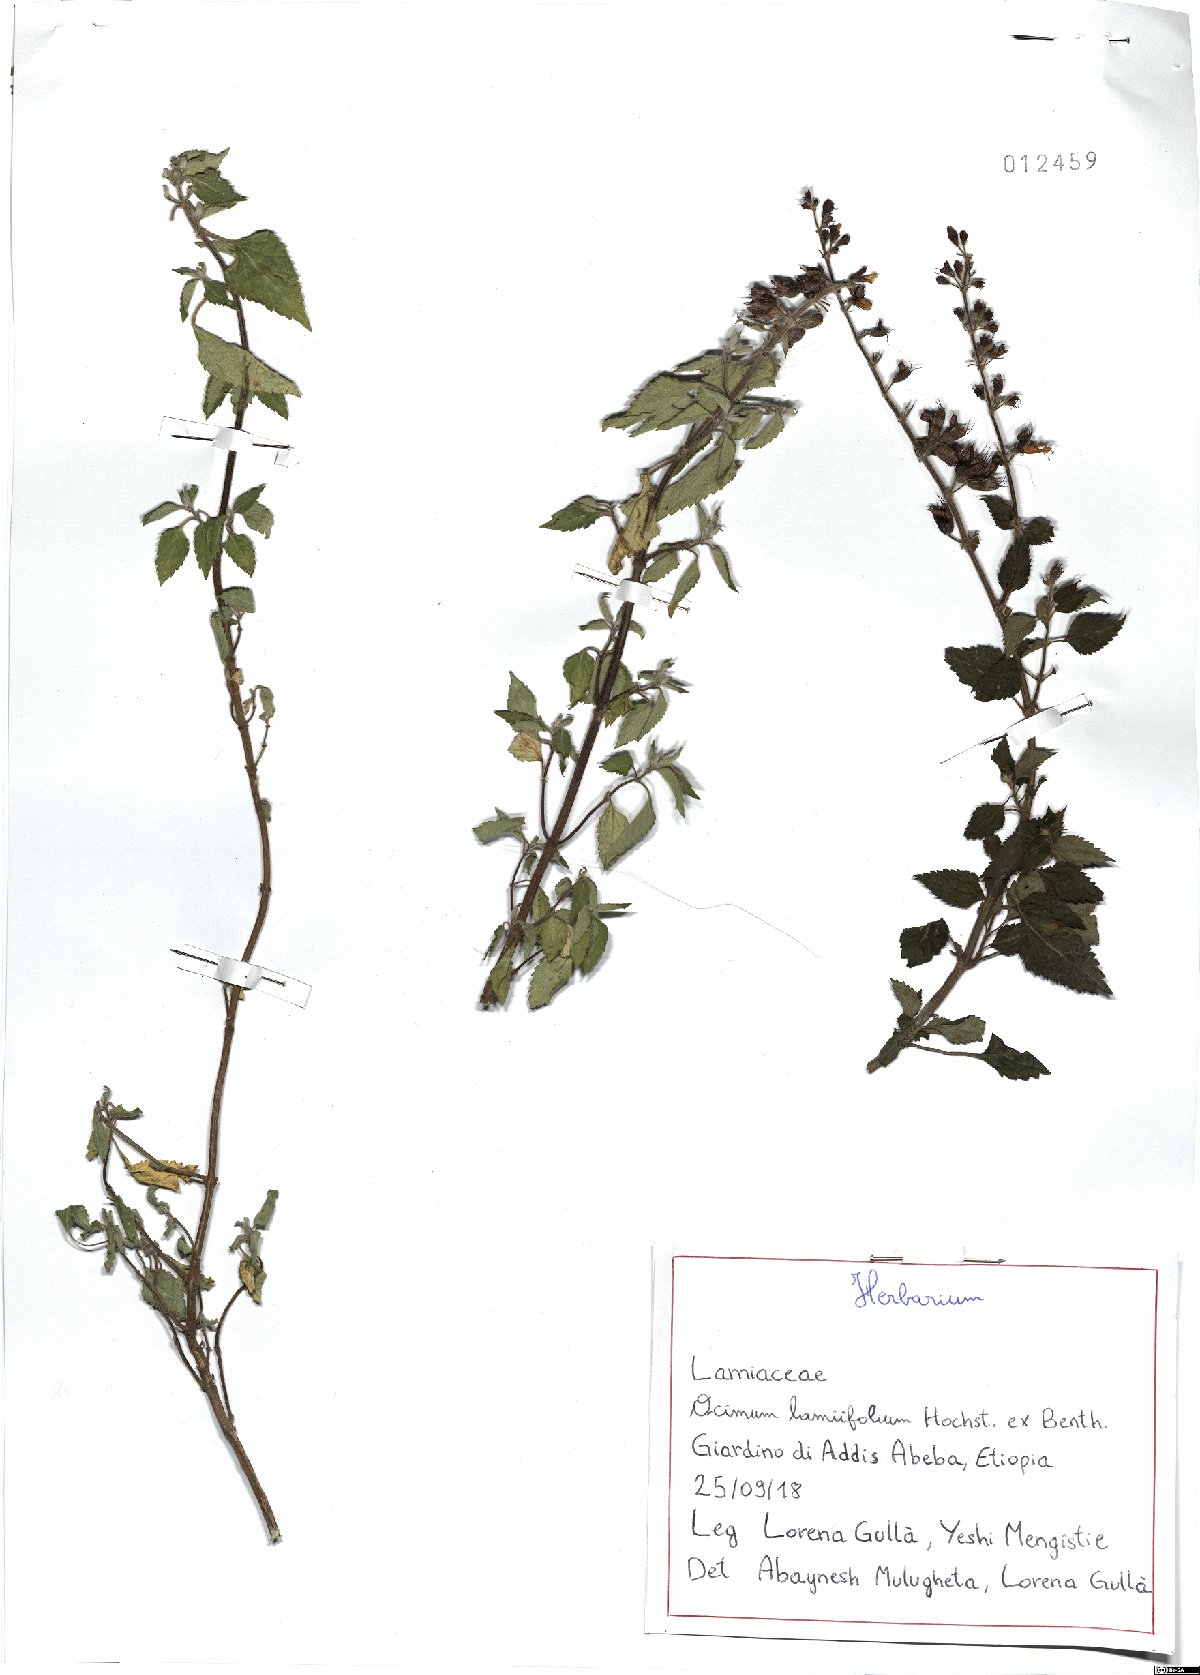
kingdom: Plantae
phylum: Tracheophyta
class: Magnoliopsida
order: Lamiales
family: Lamiaceae
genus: Ocimum
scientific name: Ocimum lamiifolium
